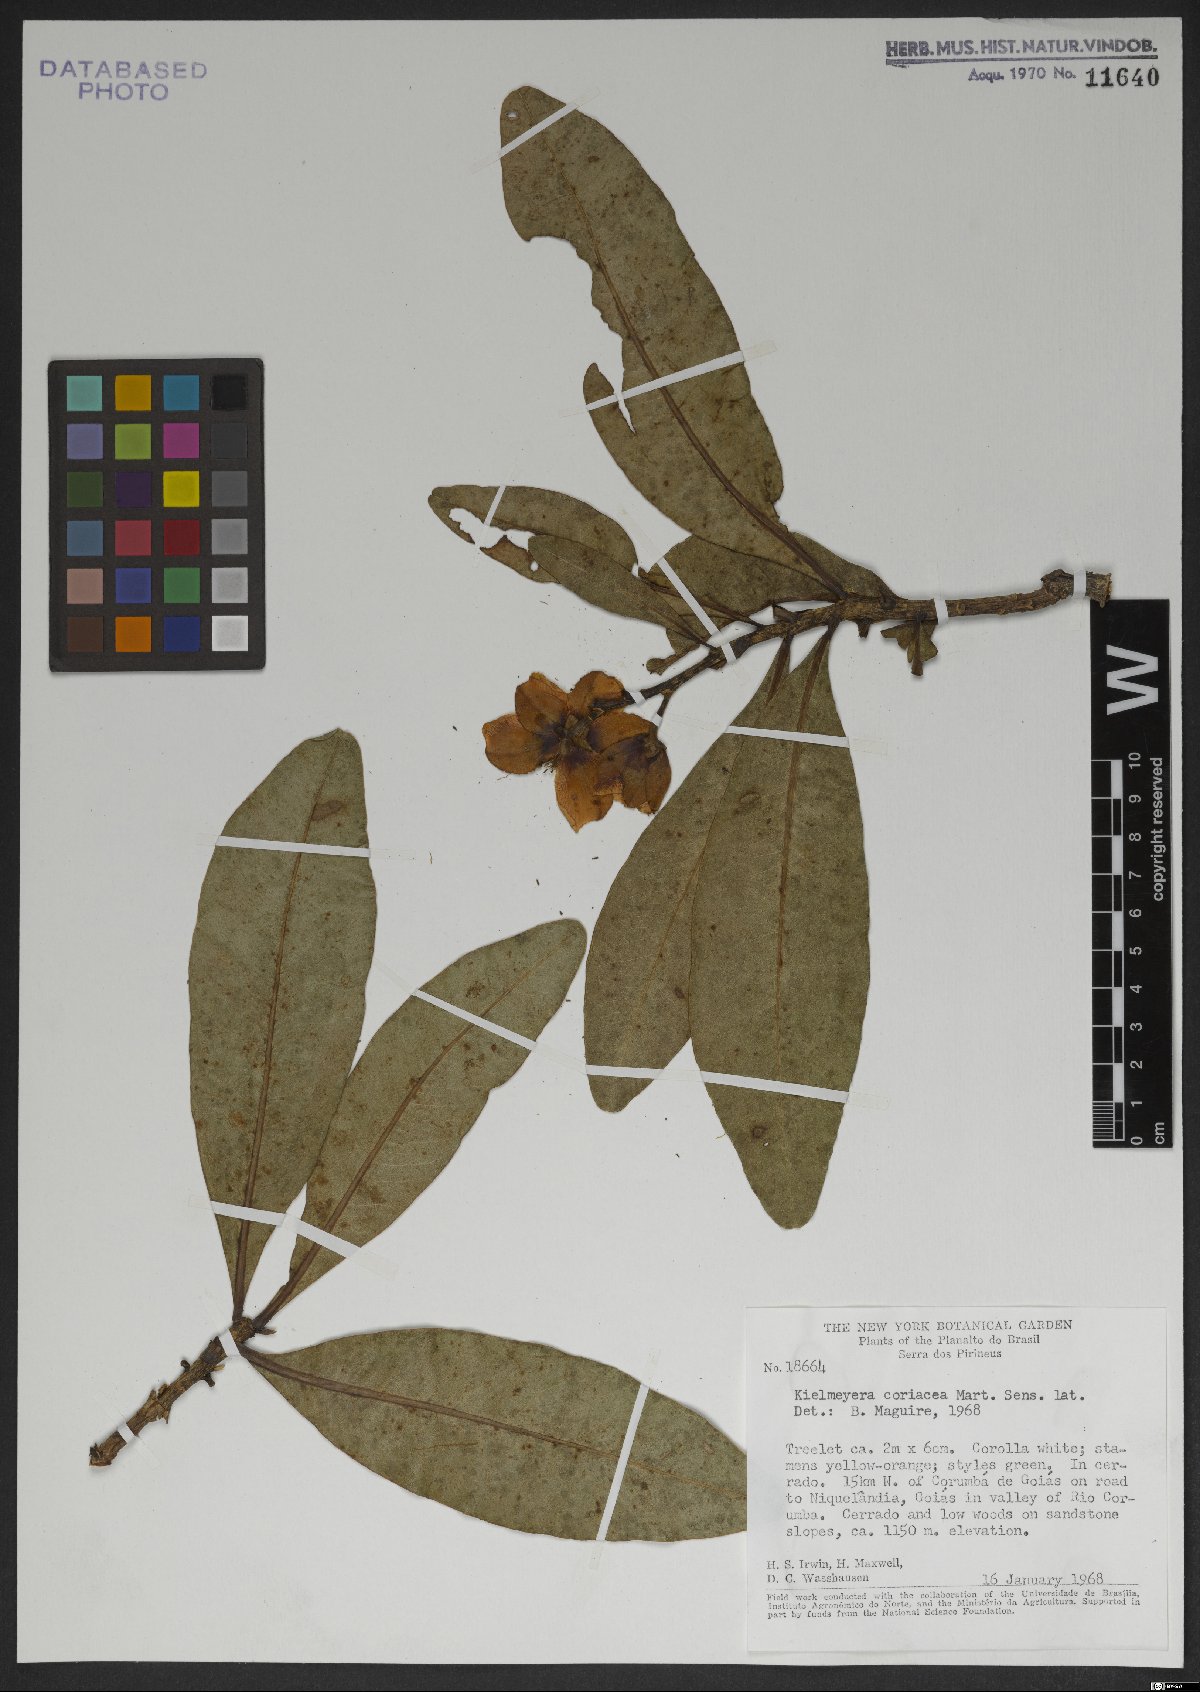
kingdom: Plantae
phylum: Tracheophyta
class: Magnoliopsida
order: Malpighiales
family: Calophyllaceae
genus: Kielmeyera
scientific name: Kielmeyera coriacea
